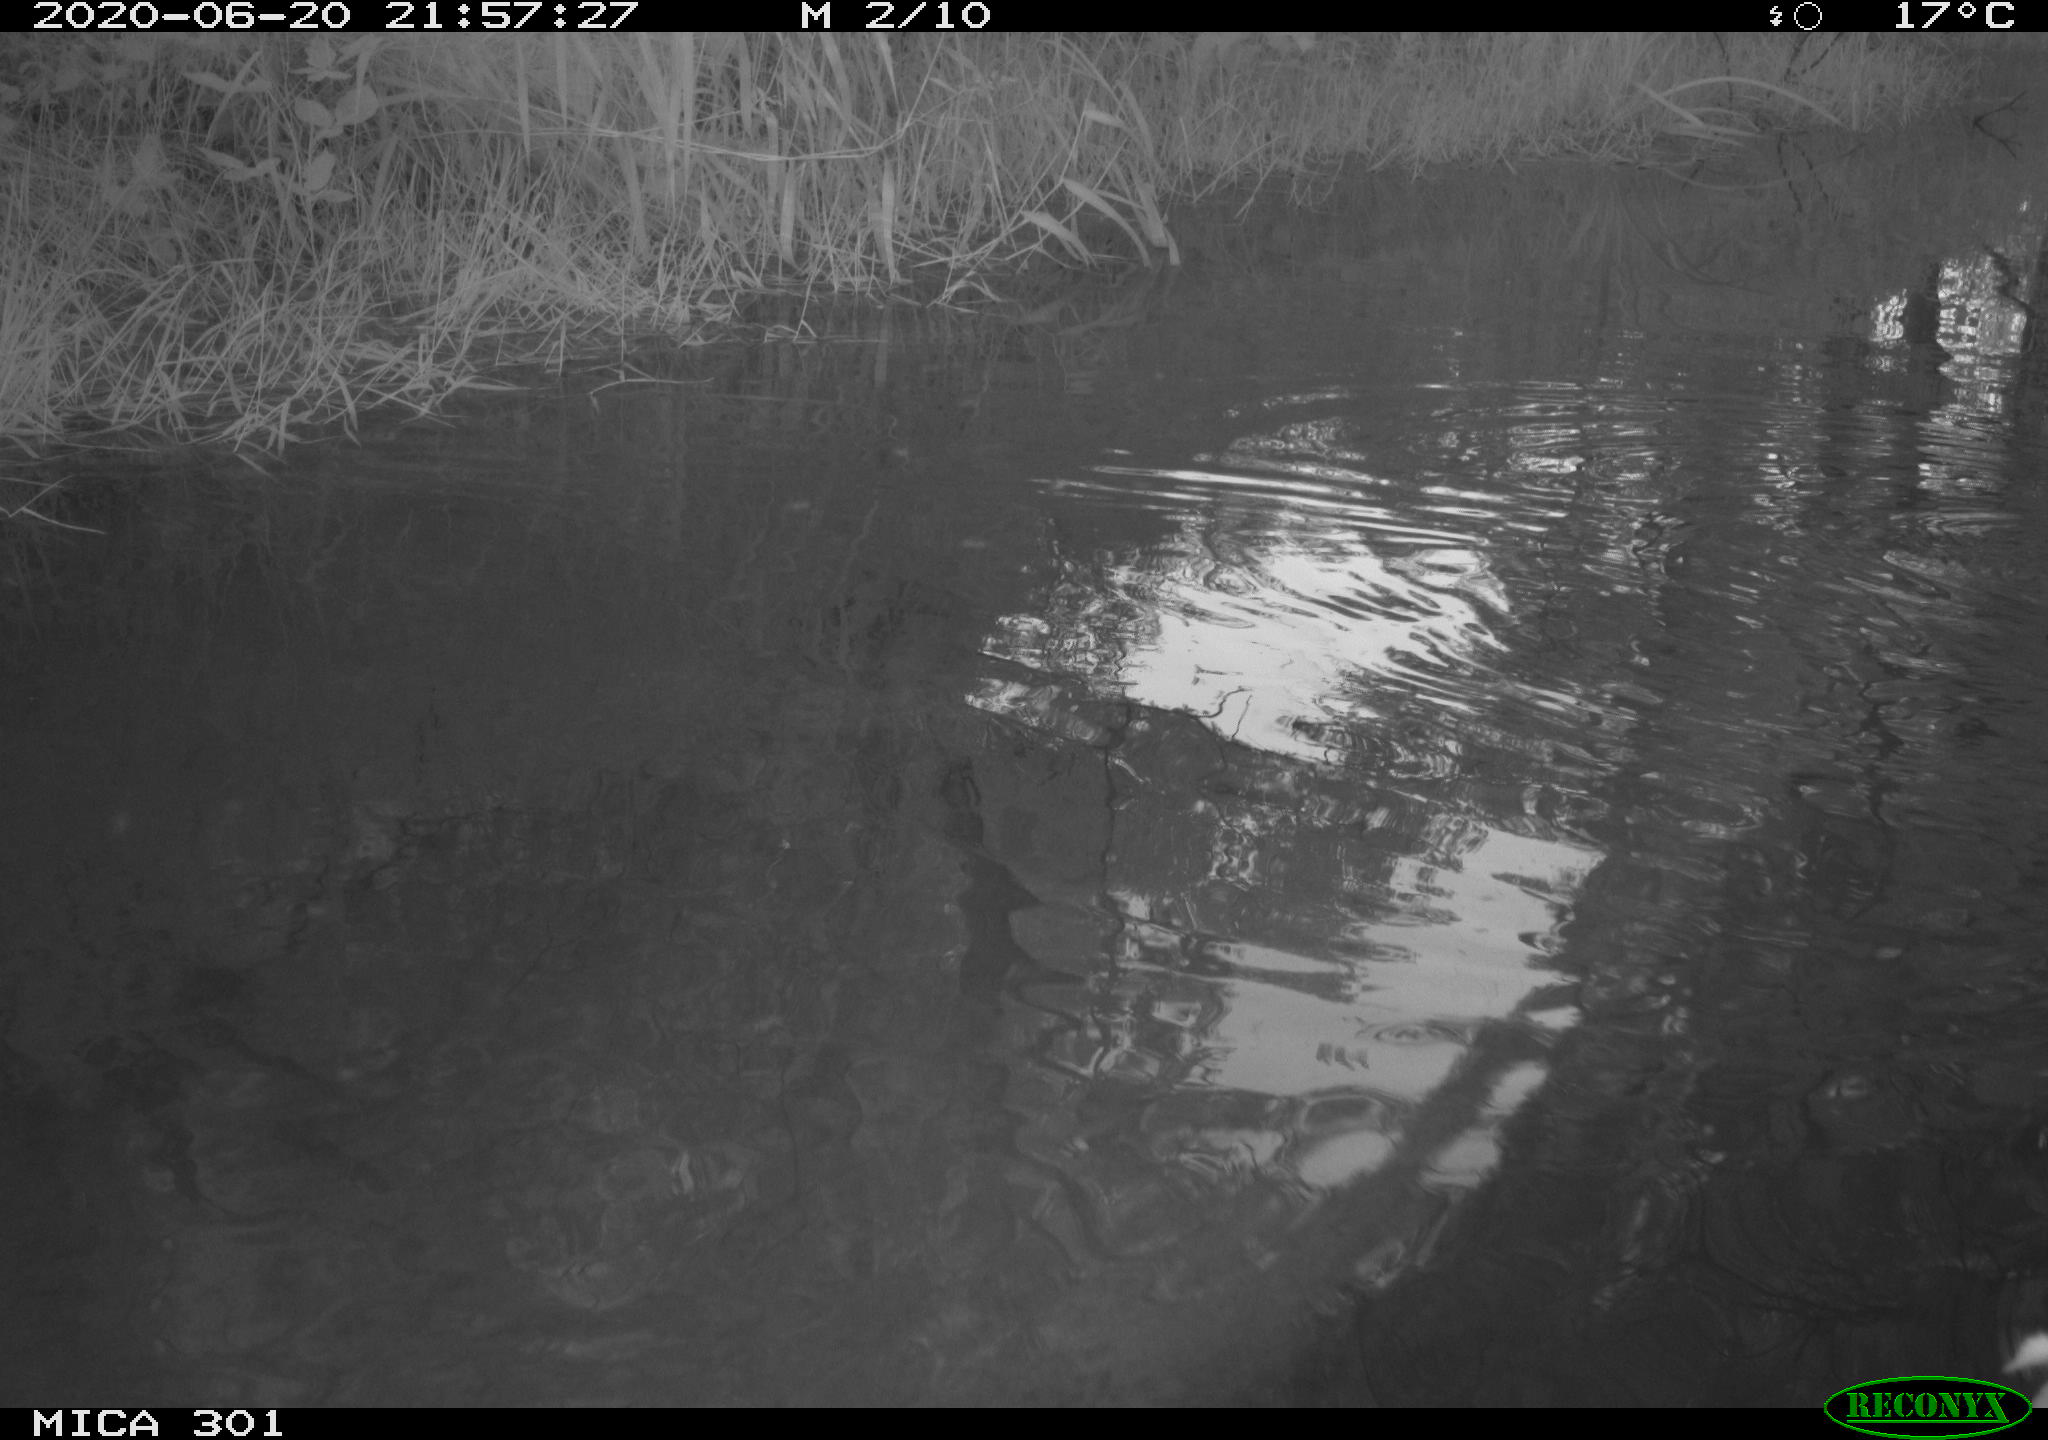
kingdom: Animalia
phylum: Chordata
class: Aves
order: Anseriformes
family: Anatidae
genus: Aix
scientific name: Aix galericulata
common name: Mandarin duck
